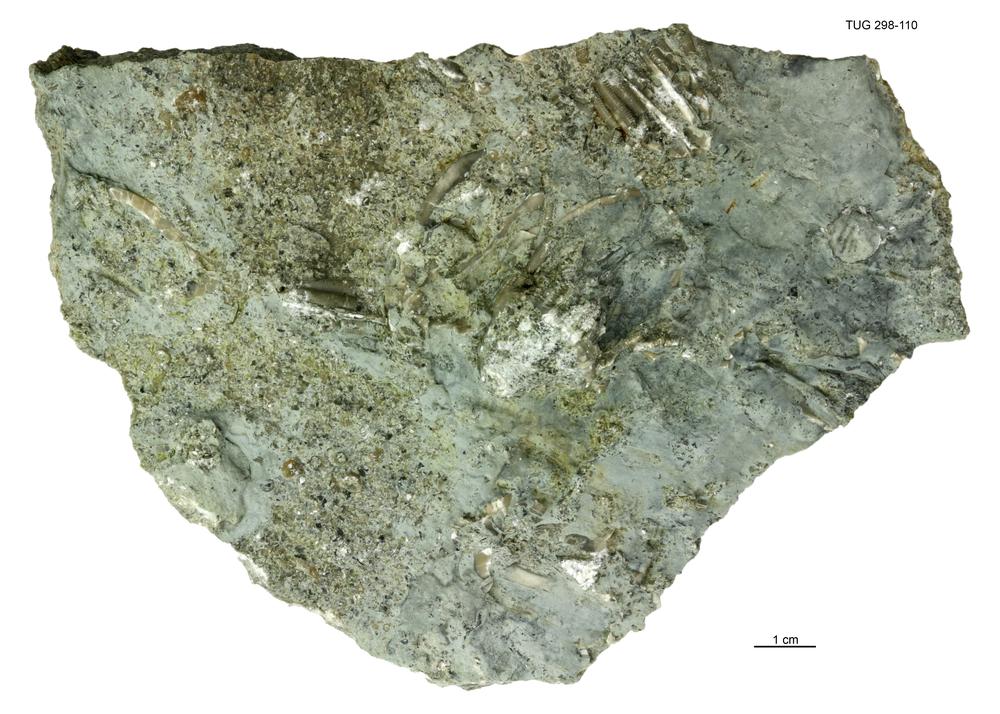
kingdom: Animalia
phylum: Echinodermata
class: Crinoidea
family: Eucalyptocrinitidae
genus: Eucalyptocrinites
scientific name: Eucalyptocrinites
